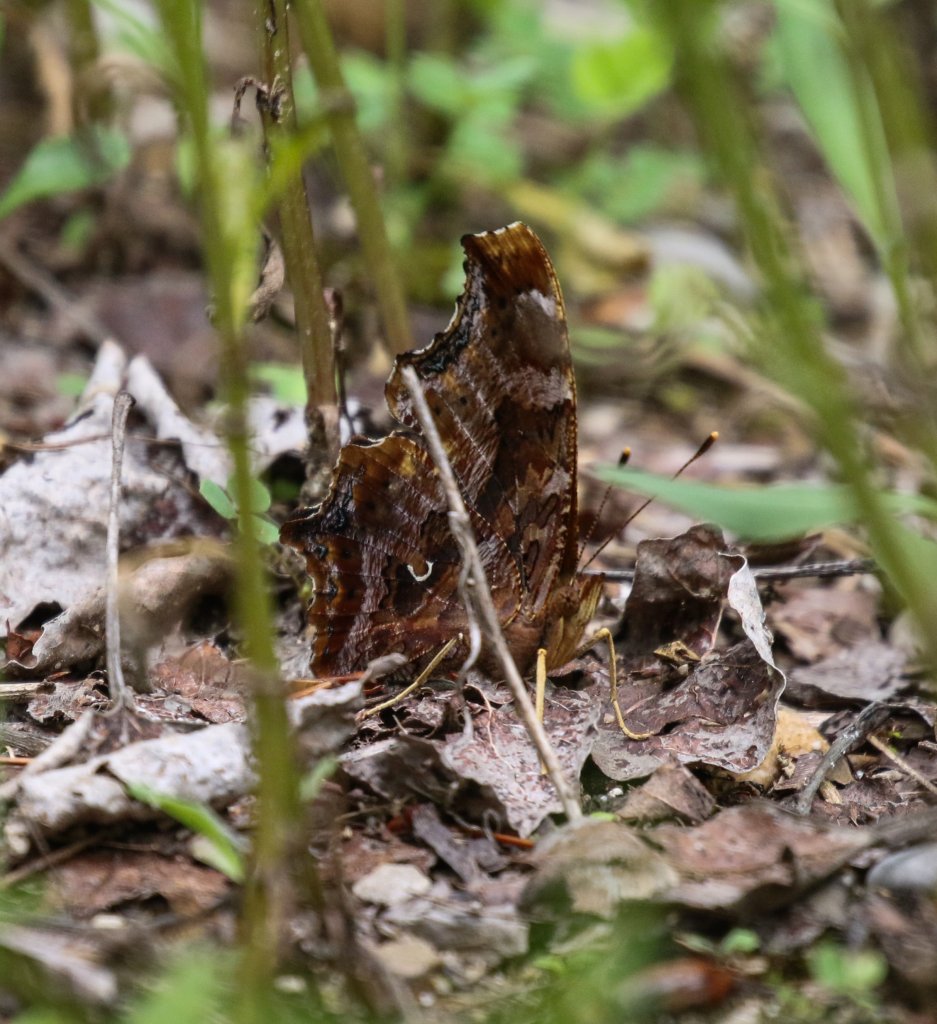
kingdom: Animalia
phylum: Arthropoda
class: Insecta
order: Lepidoptera
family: Nymphalidae
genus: Polygonia
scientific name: Polygonia faunus
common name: Green Comma
